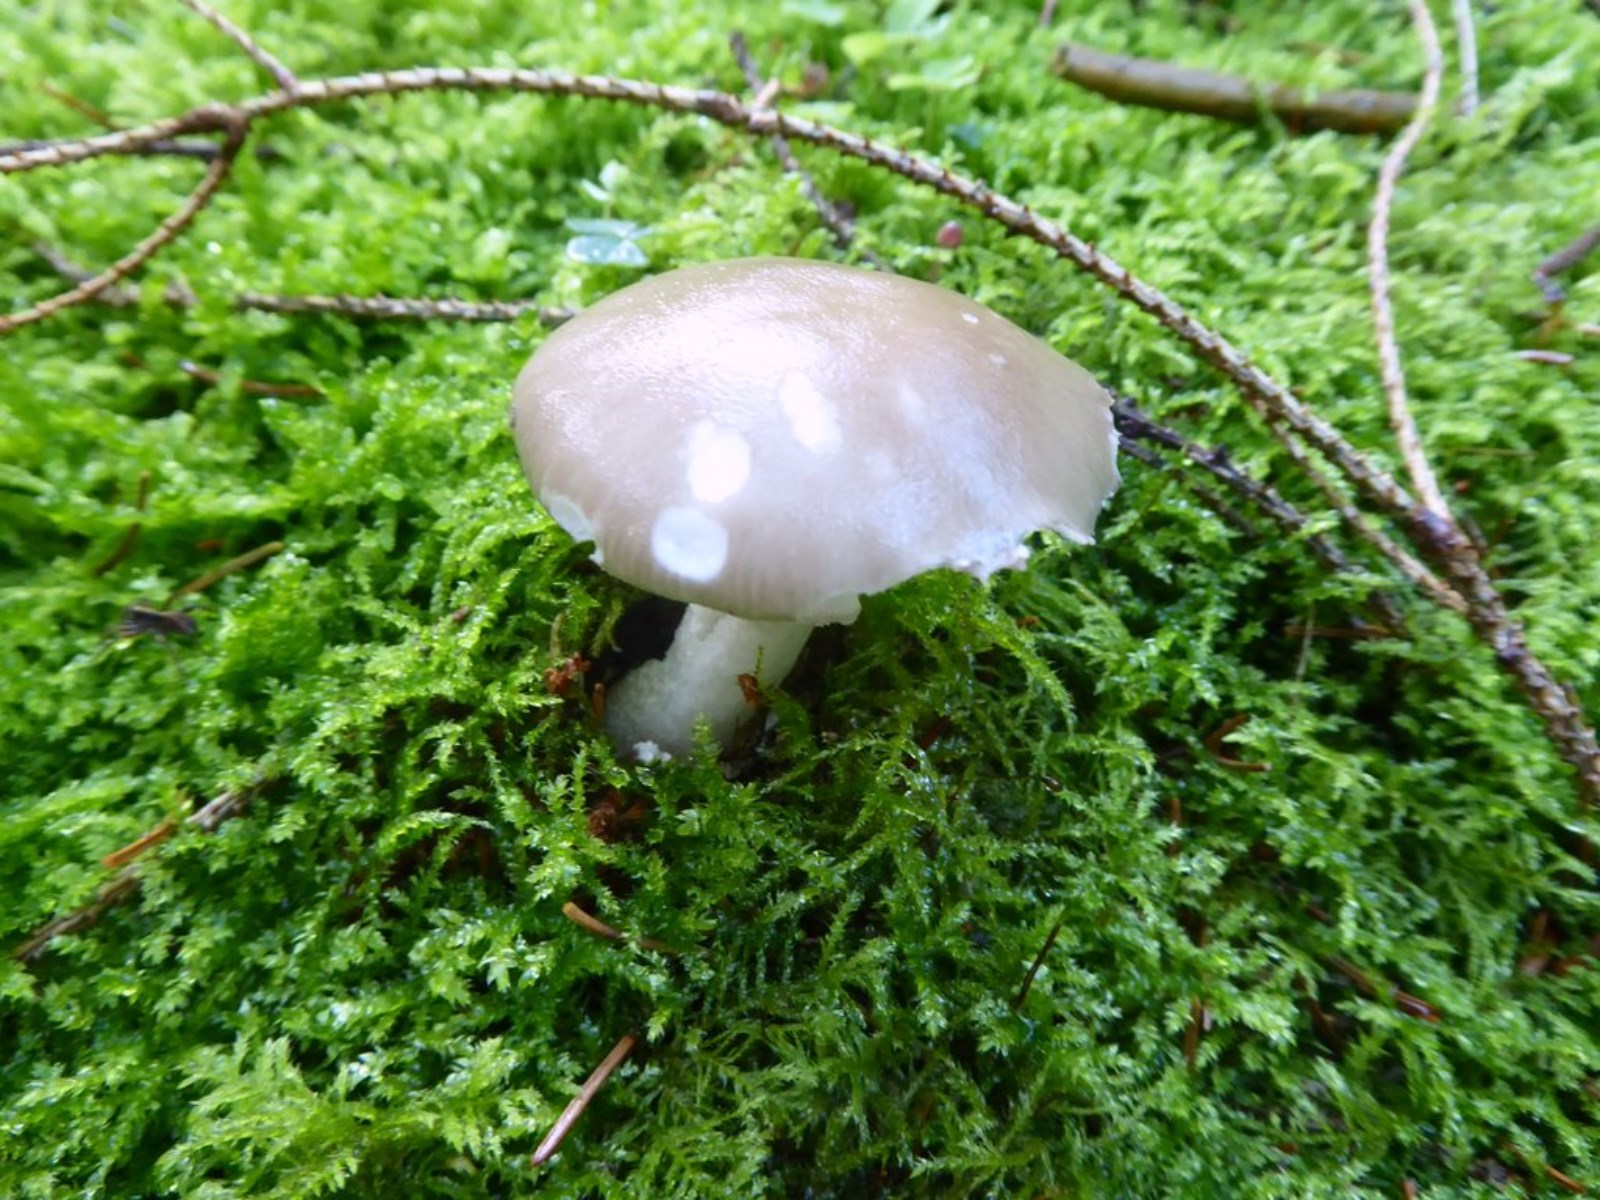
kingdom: Fungi
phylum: Basidiomycota
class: Agaricomycetes
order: Agaricales
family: Amanitaceae
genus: Amanita
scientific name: Amanita porphyria
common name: porfyr-fluesvamp
